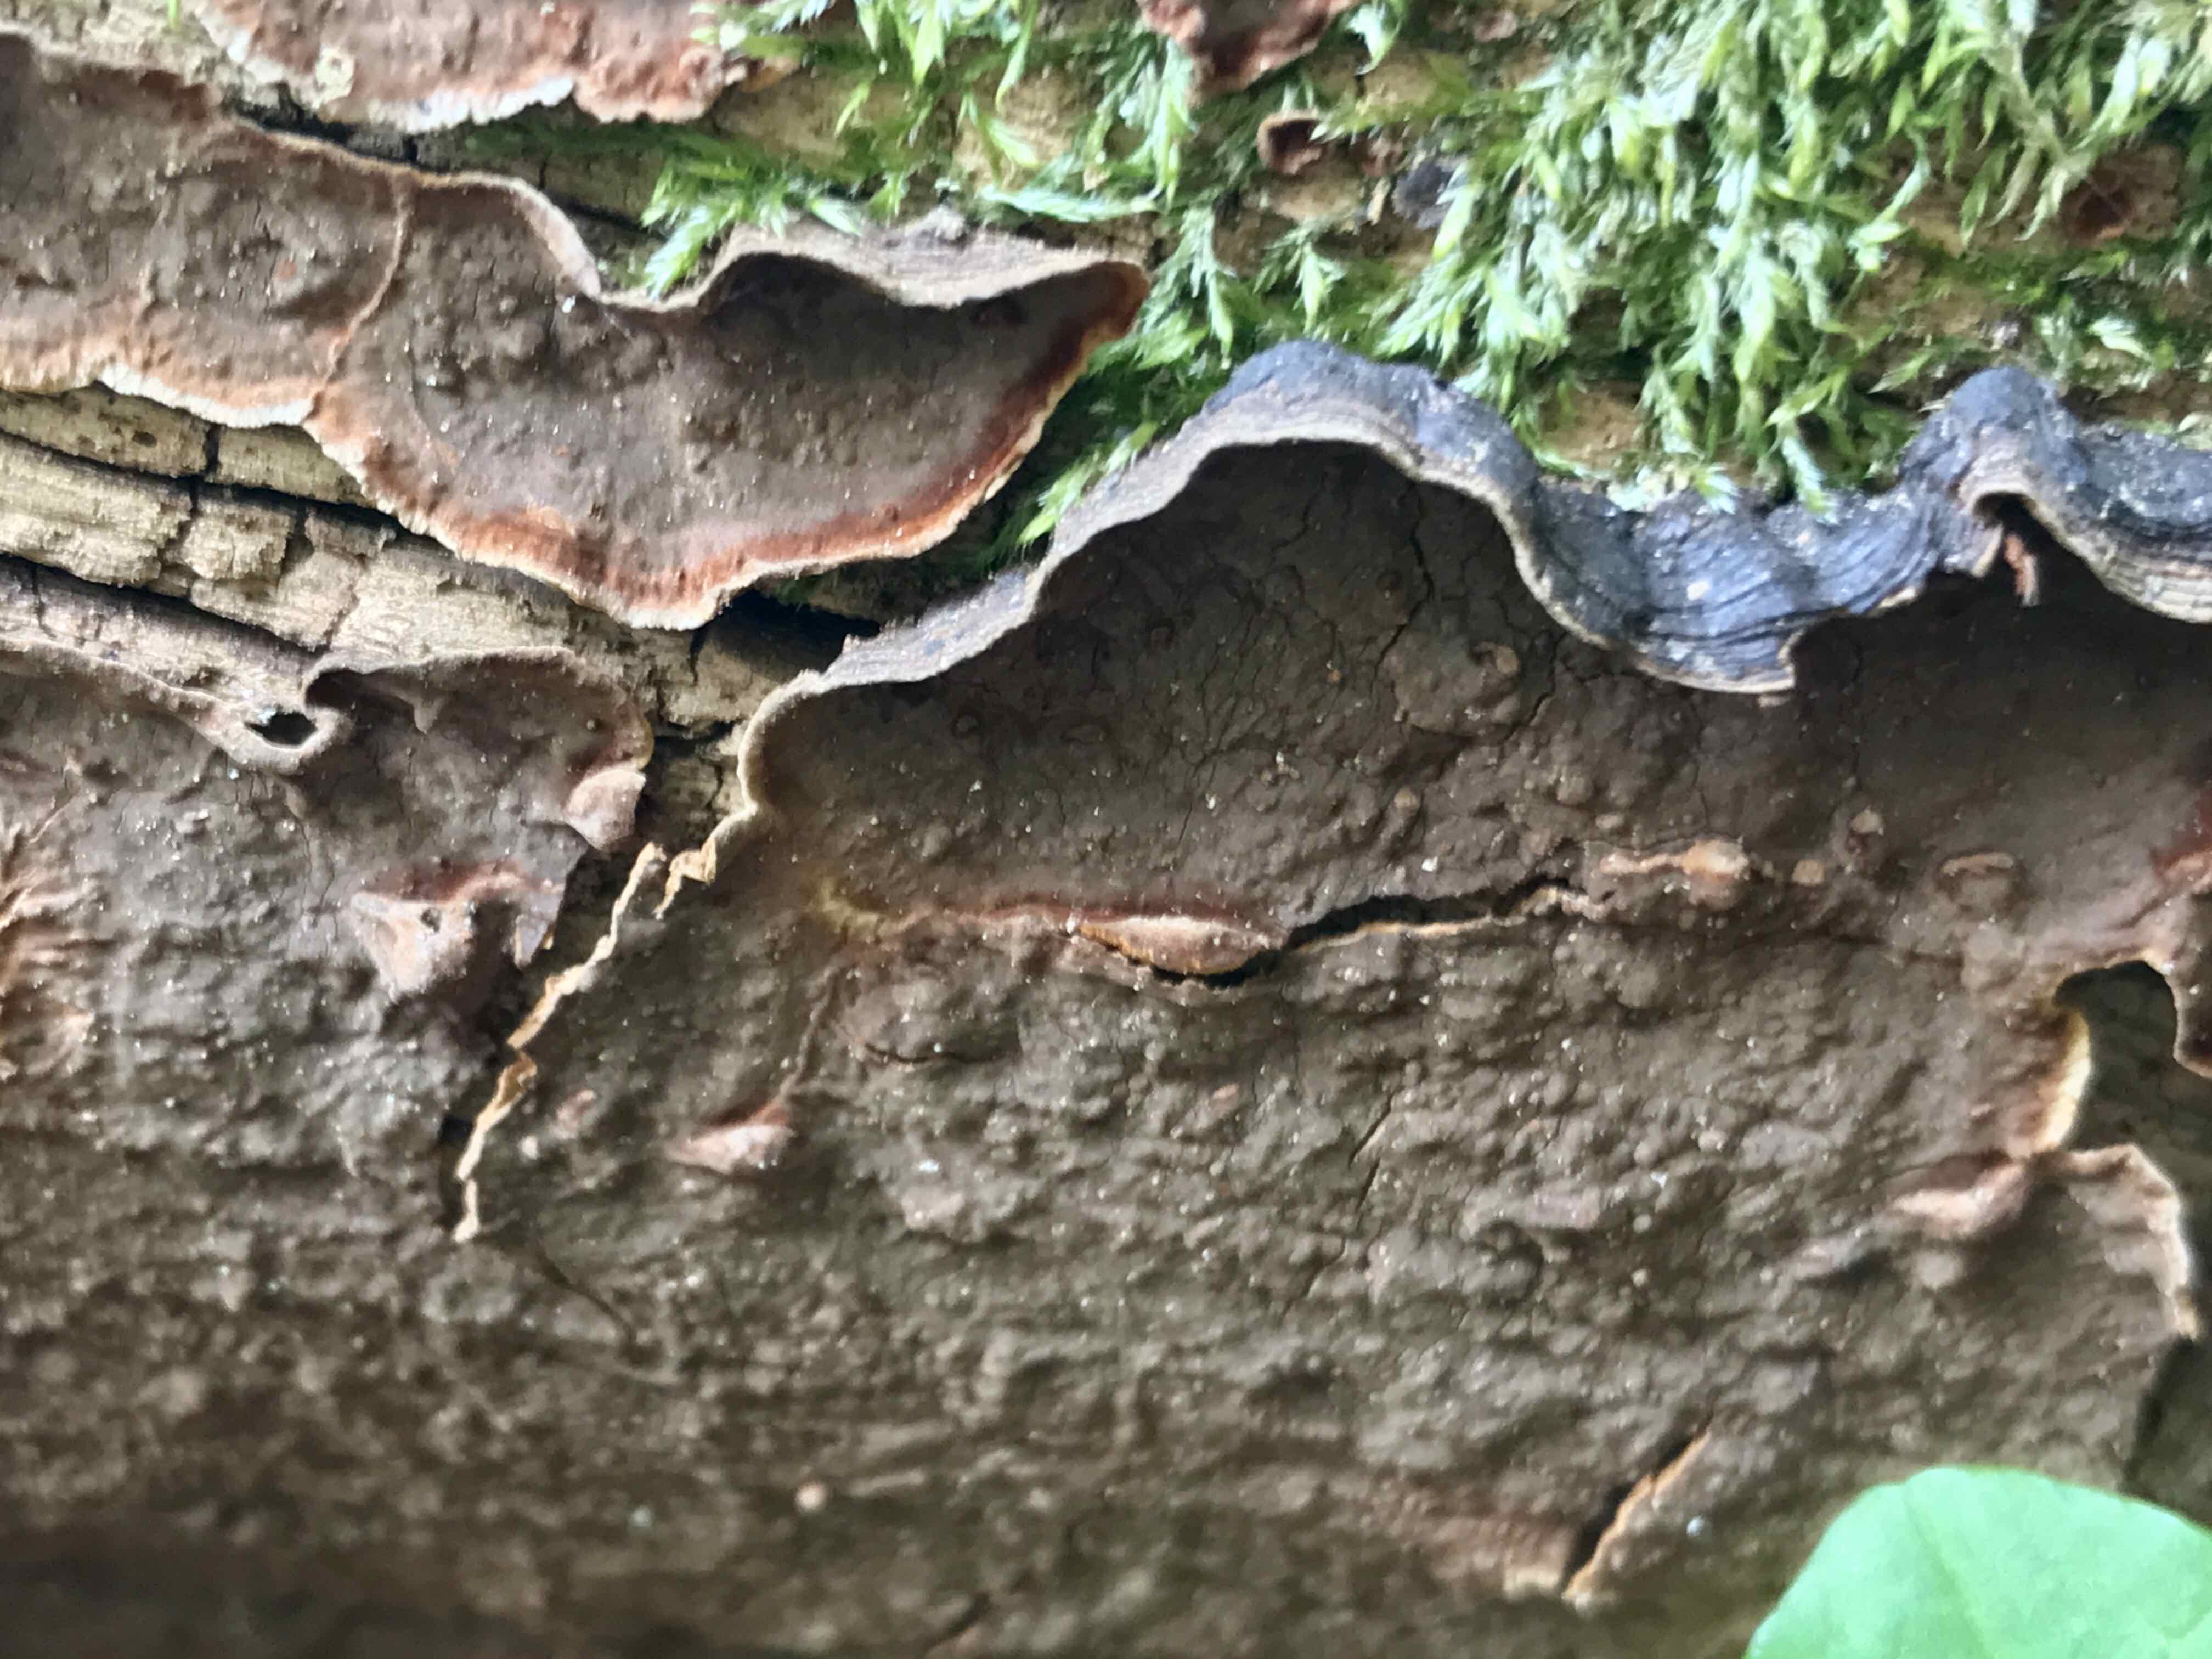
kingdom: Fungi
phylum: Basidiomycota
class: Agaricomycetes
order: Hymenochaetales
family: Hymenochaetaceae
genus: Hymenochaete
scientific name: Hymenochaete rubiginosa
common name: stiv ruslædersvamp
